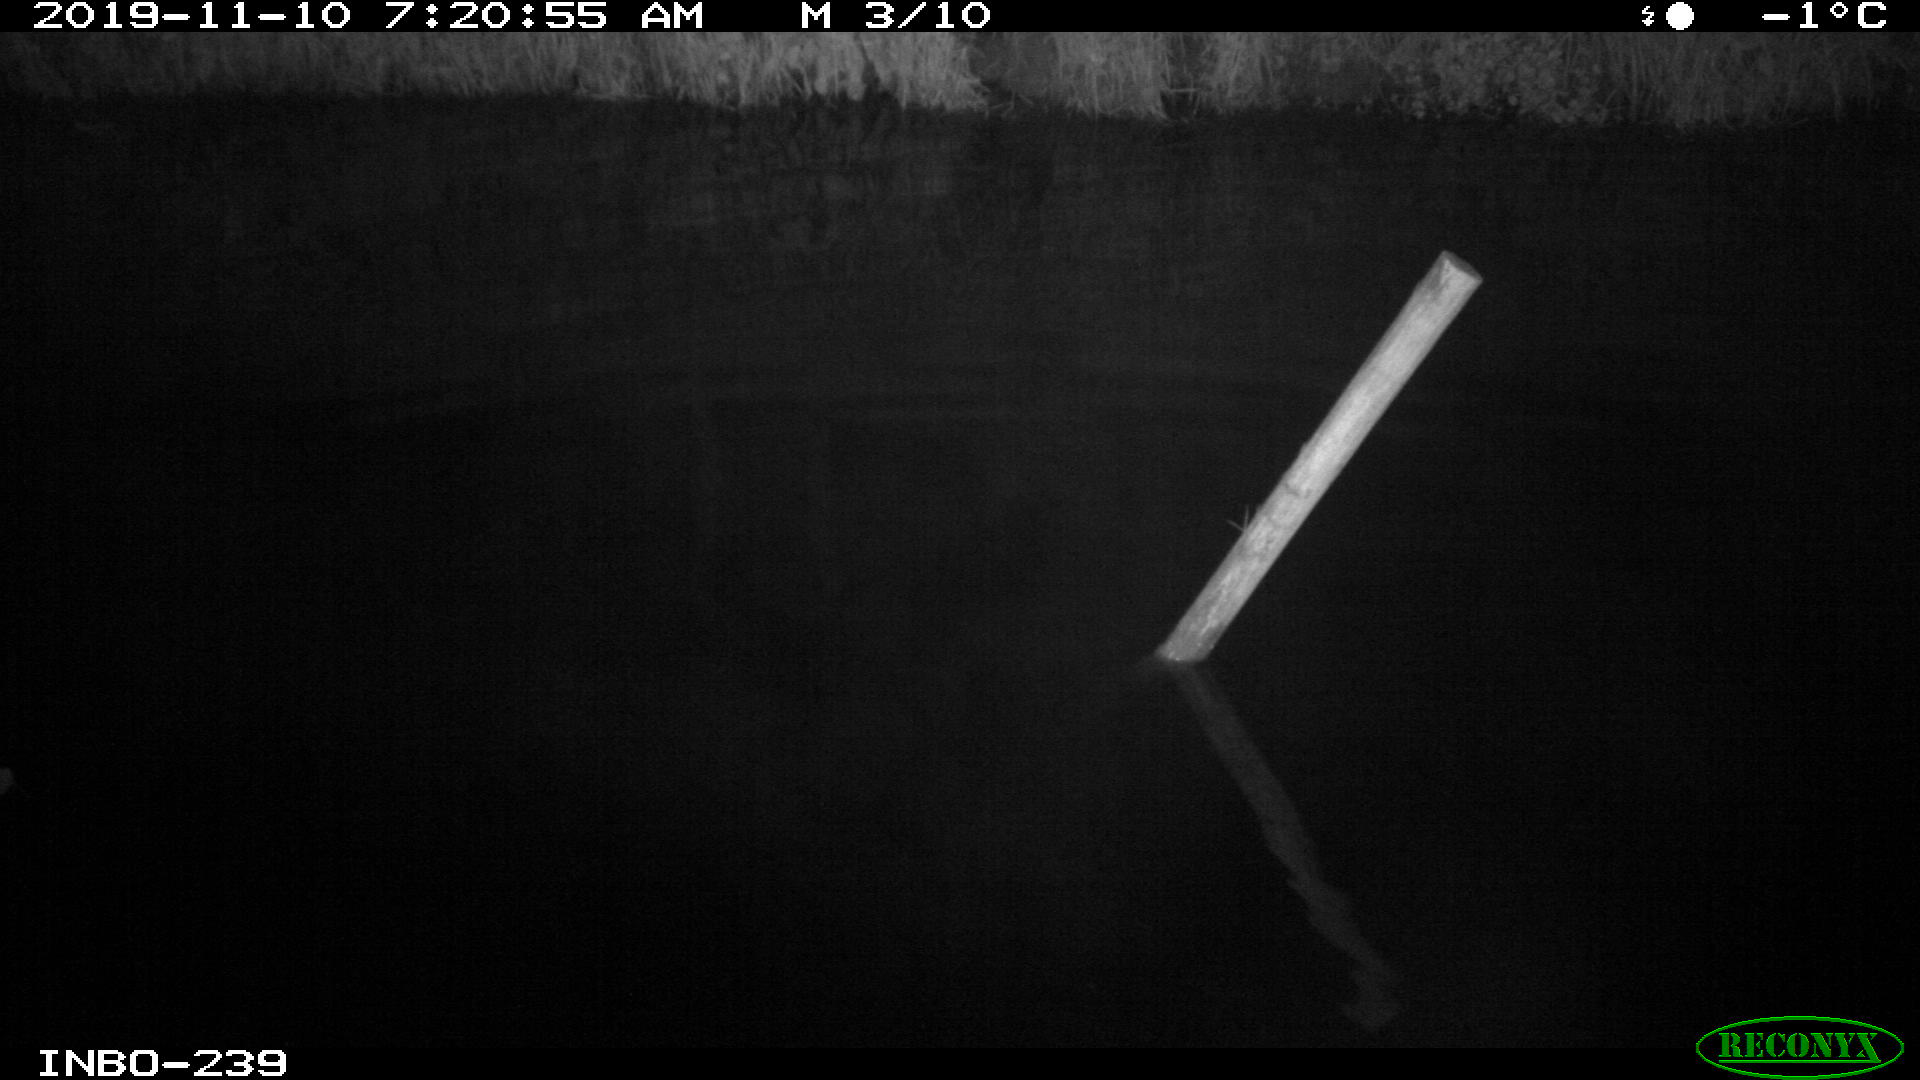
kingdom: Animalia
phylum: Chordata
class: Aves
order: Anseriformes
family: Anatidae
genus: Anas
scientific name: Anas platyrhynchos
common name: Mallard
